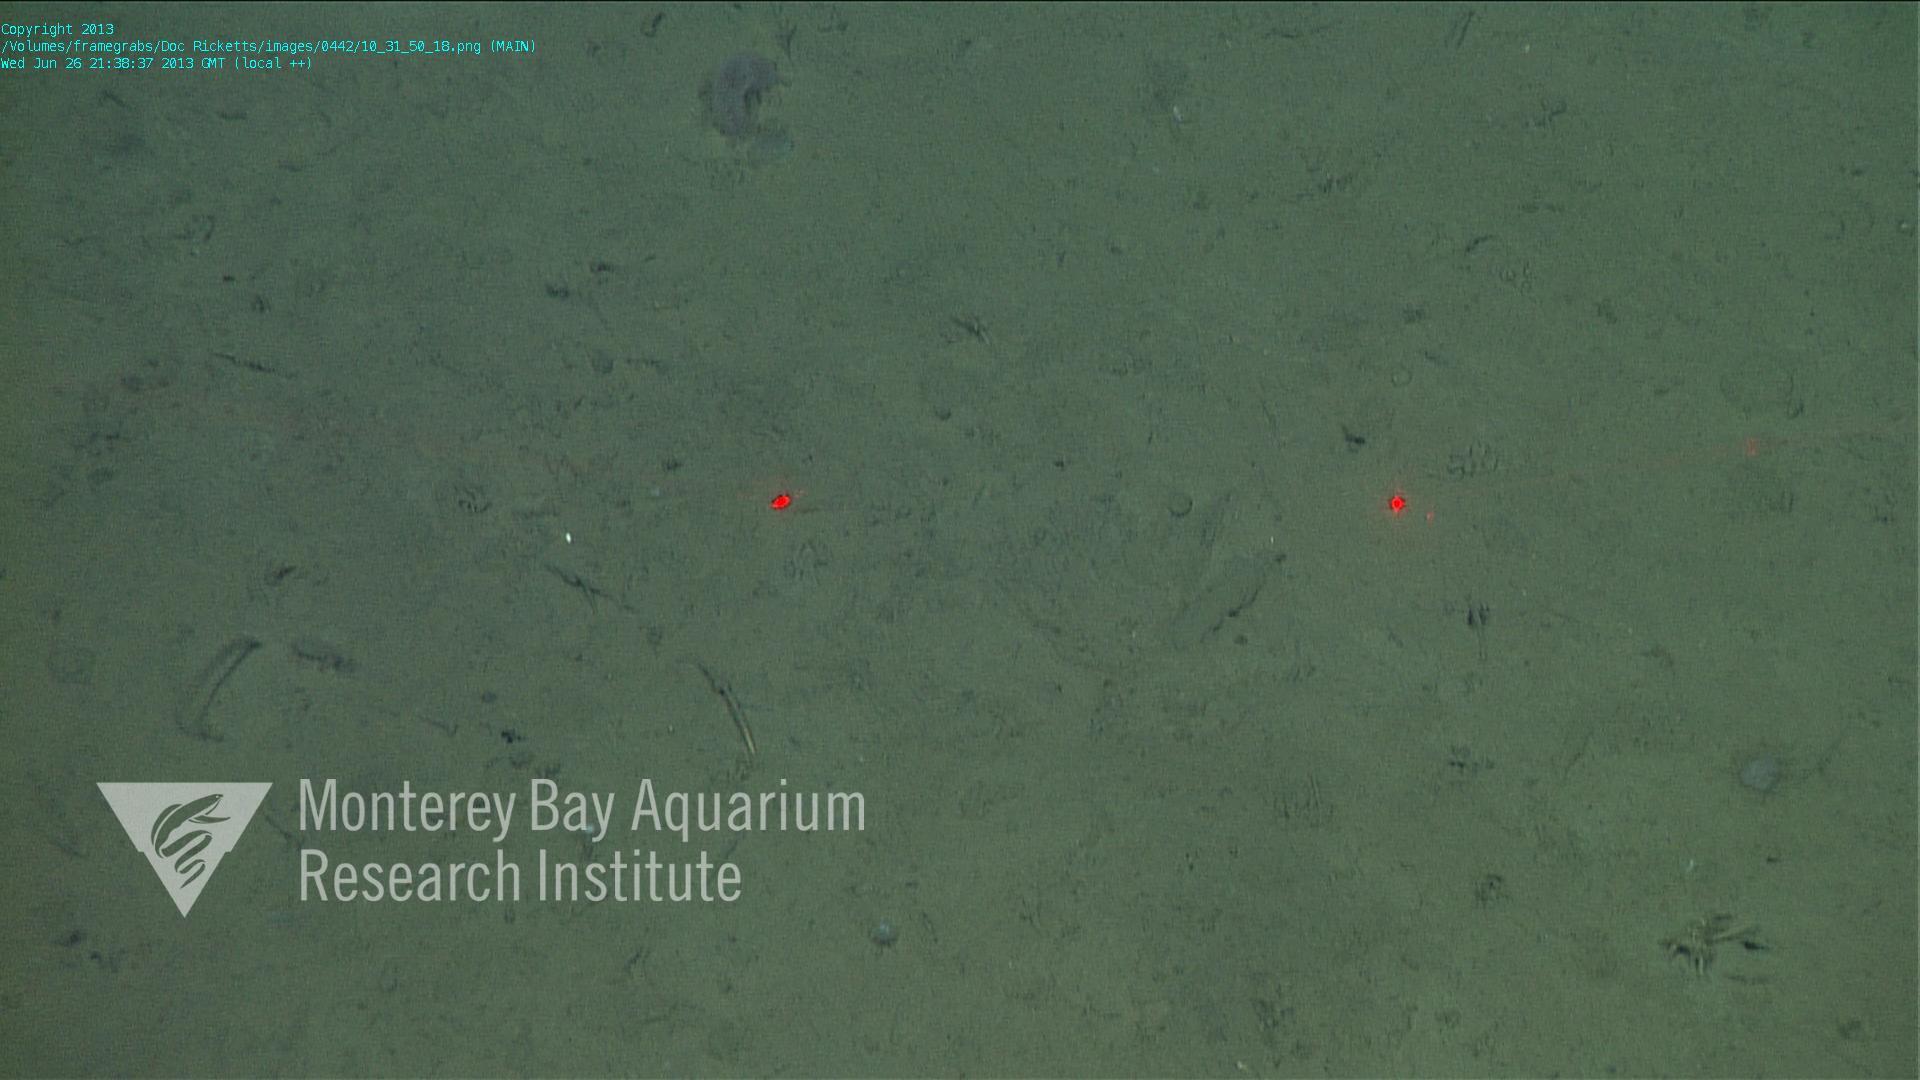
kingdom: Animalia
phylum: Porifera
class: Demospongiae
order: Poecilosclerida
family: Cladorhizidae
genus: Cladorhiza
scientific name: Cladorhiza
